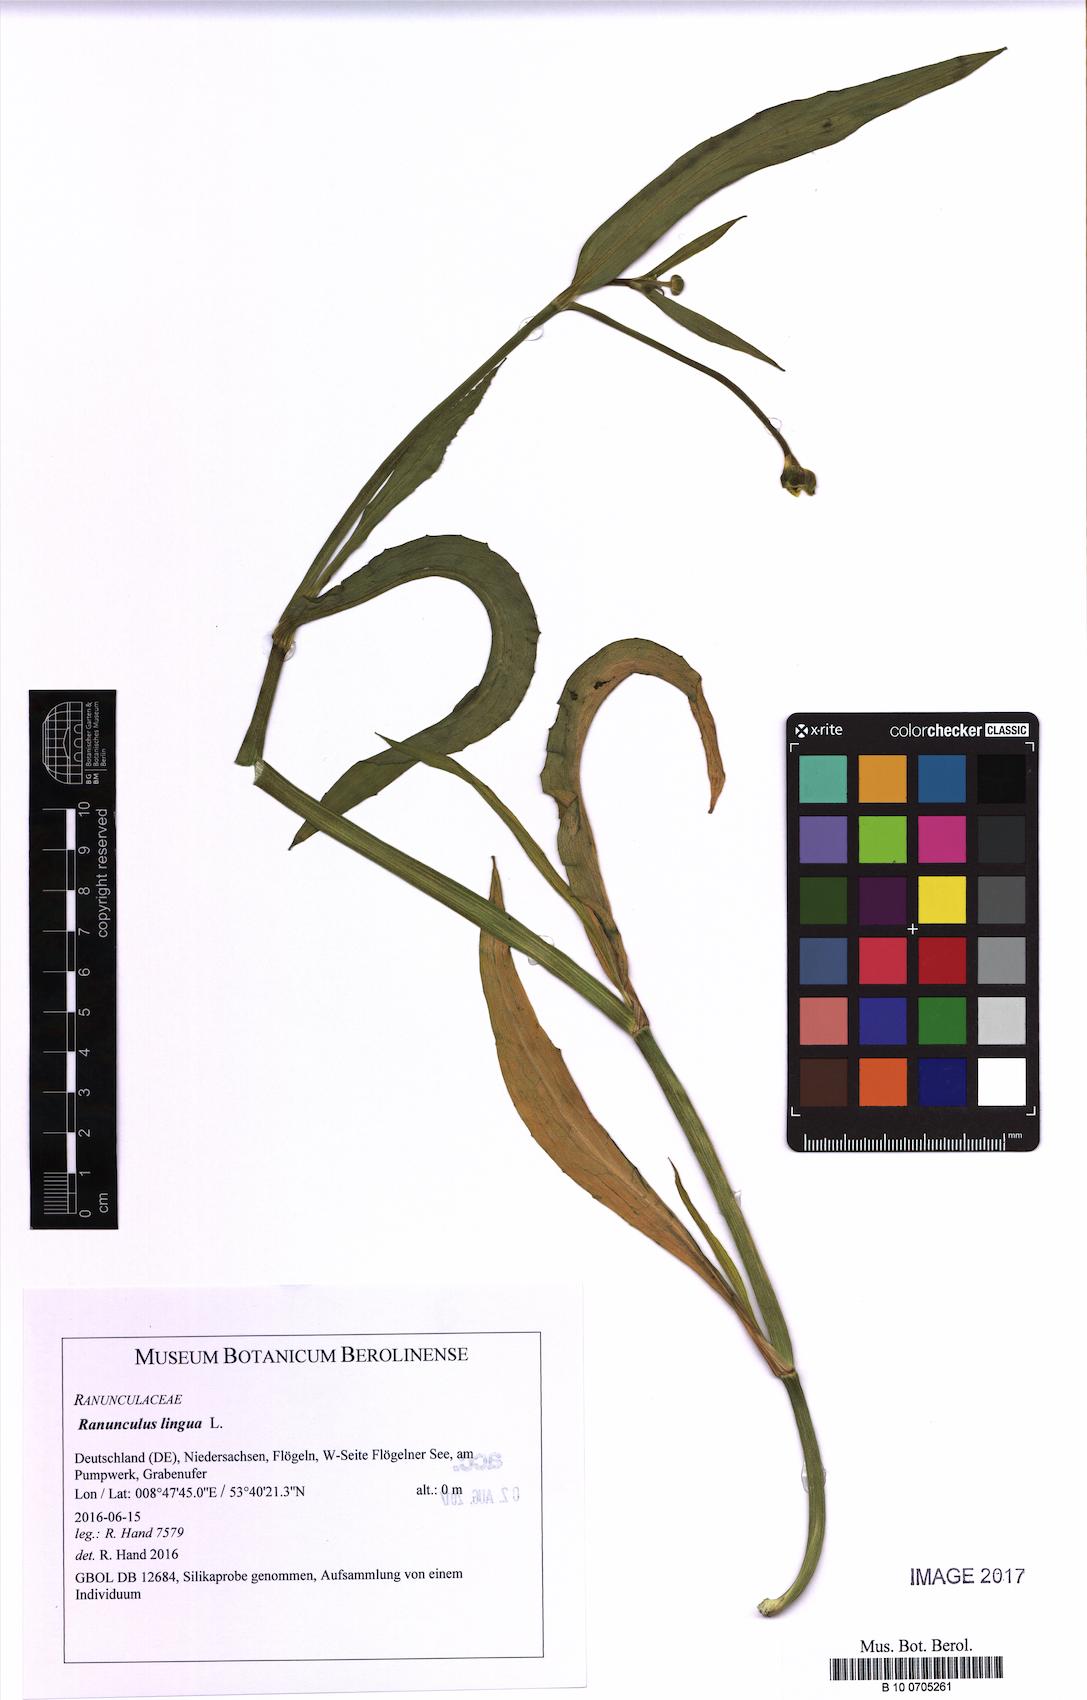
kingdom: Plantae
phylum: Tracheophyta
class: Magnoliopsida
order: Ranunculales
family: Ranunculaceae
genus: Ranunculus
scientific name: Ranunculus lingua
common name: Greater spearwort
